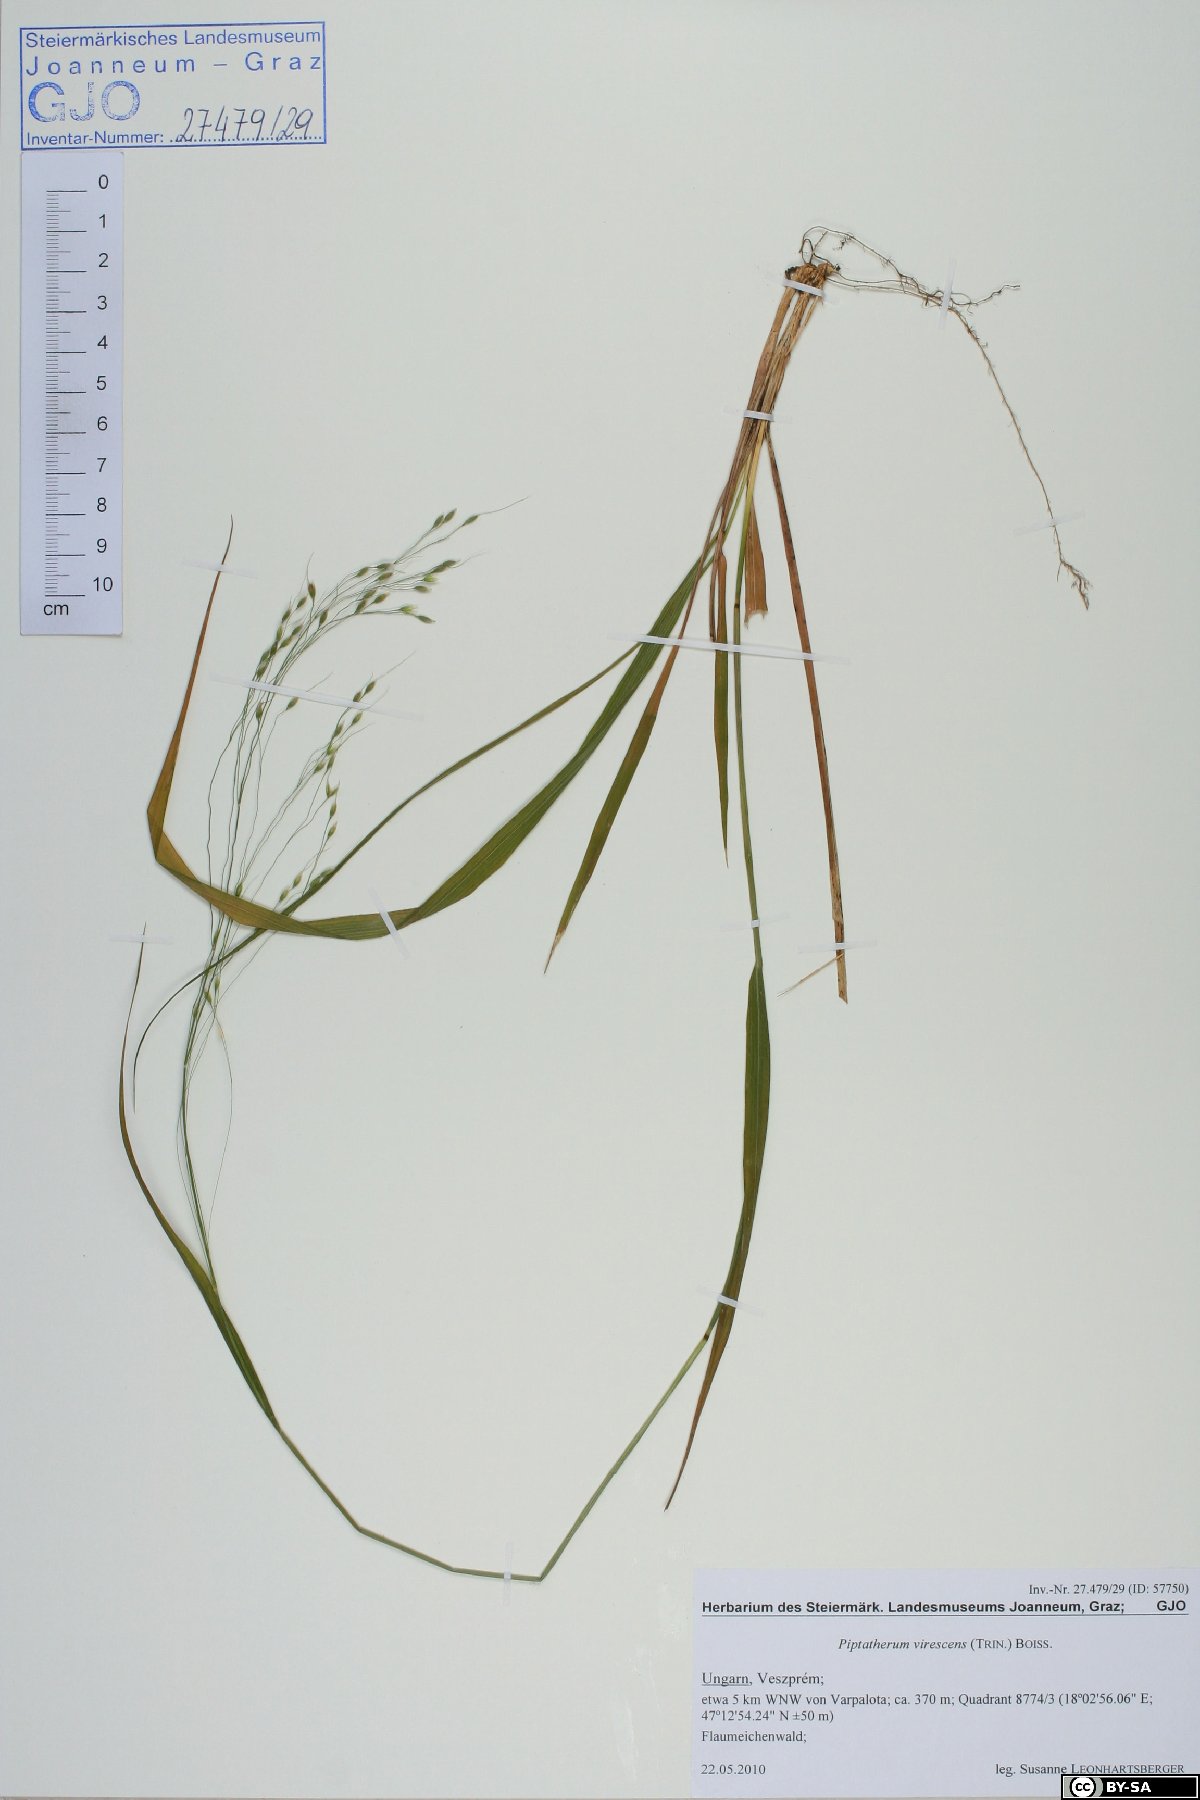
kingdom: Plantae
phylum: Tracheophyta
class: Liliopsida
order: Poales
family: Poaceae
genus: Achnatherum
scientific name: Achnatherum virescens
